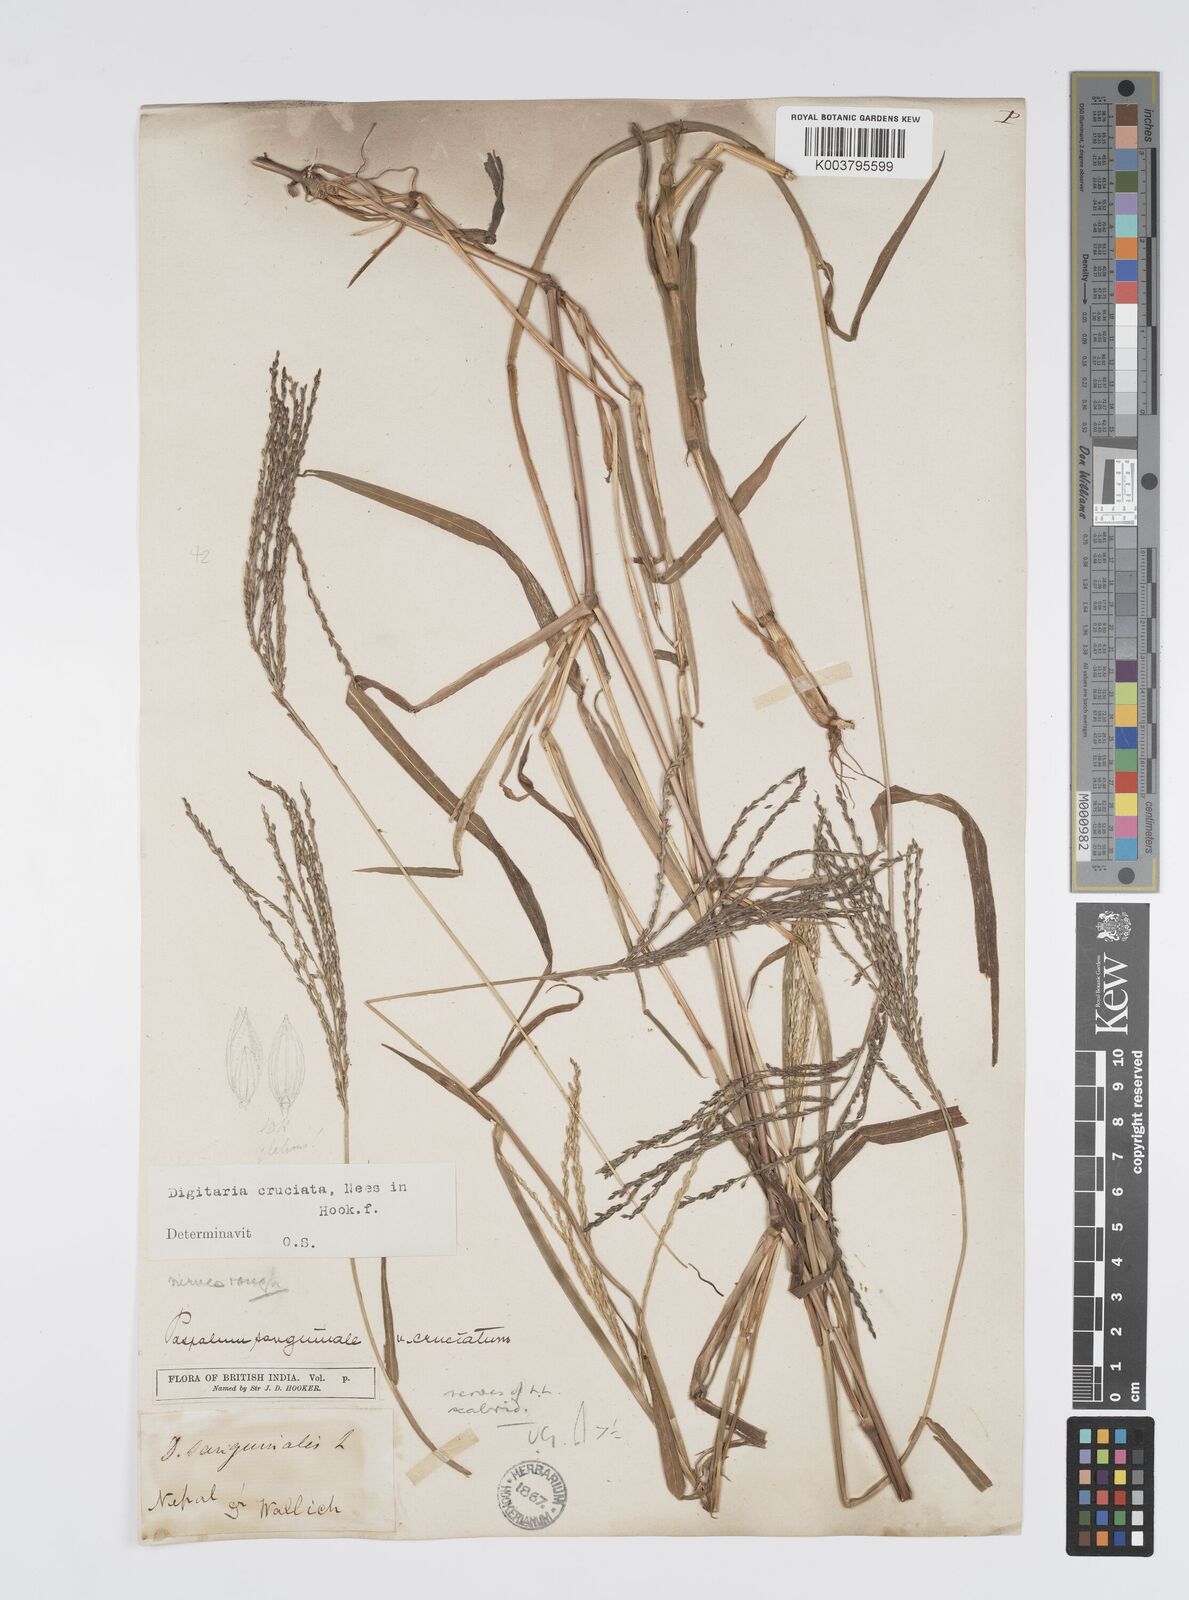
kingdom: Plantae
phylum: Tracheophyta
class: Liliopsida
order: Poales
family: Poaceae
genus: Digitaria
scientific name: Digitaria sanguinalis
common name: Hairy crabgrass
